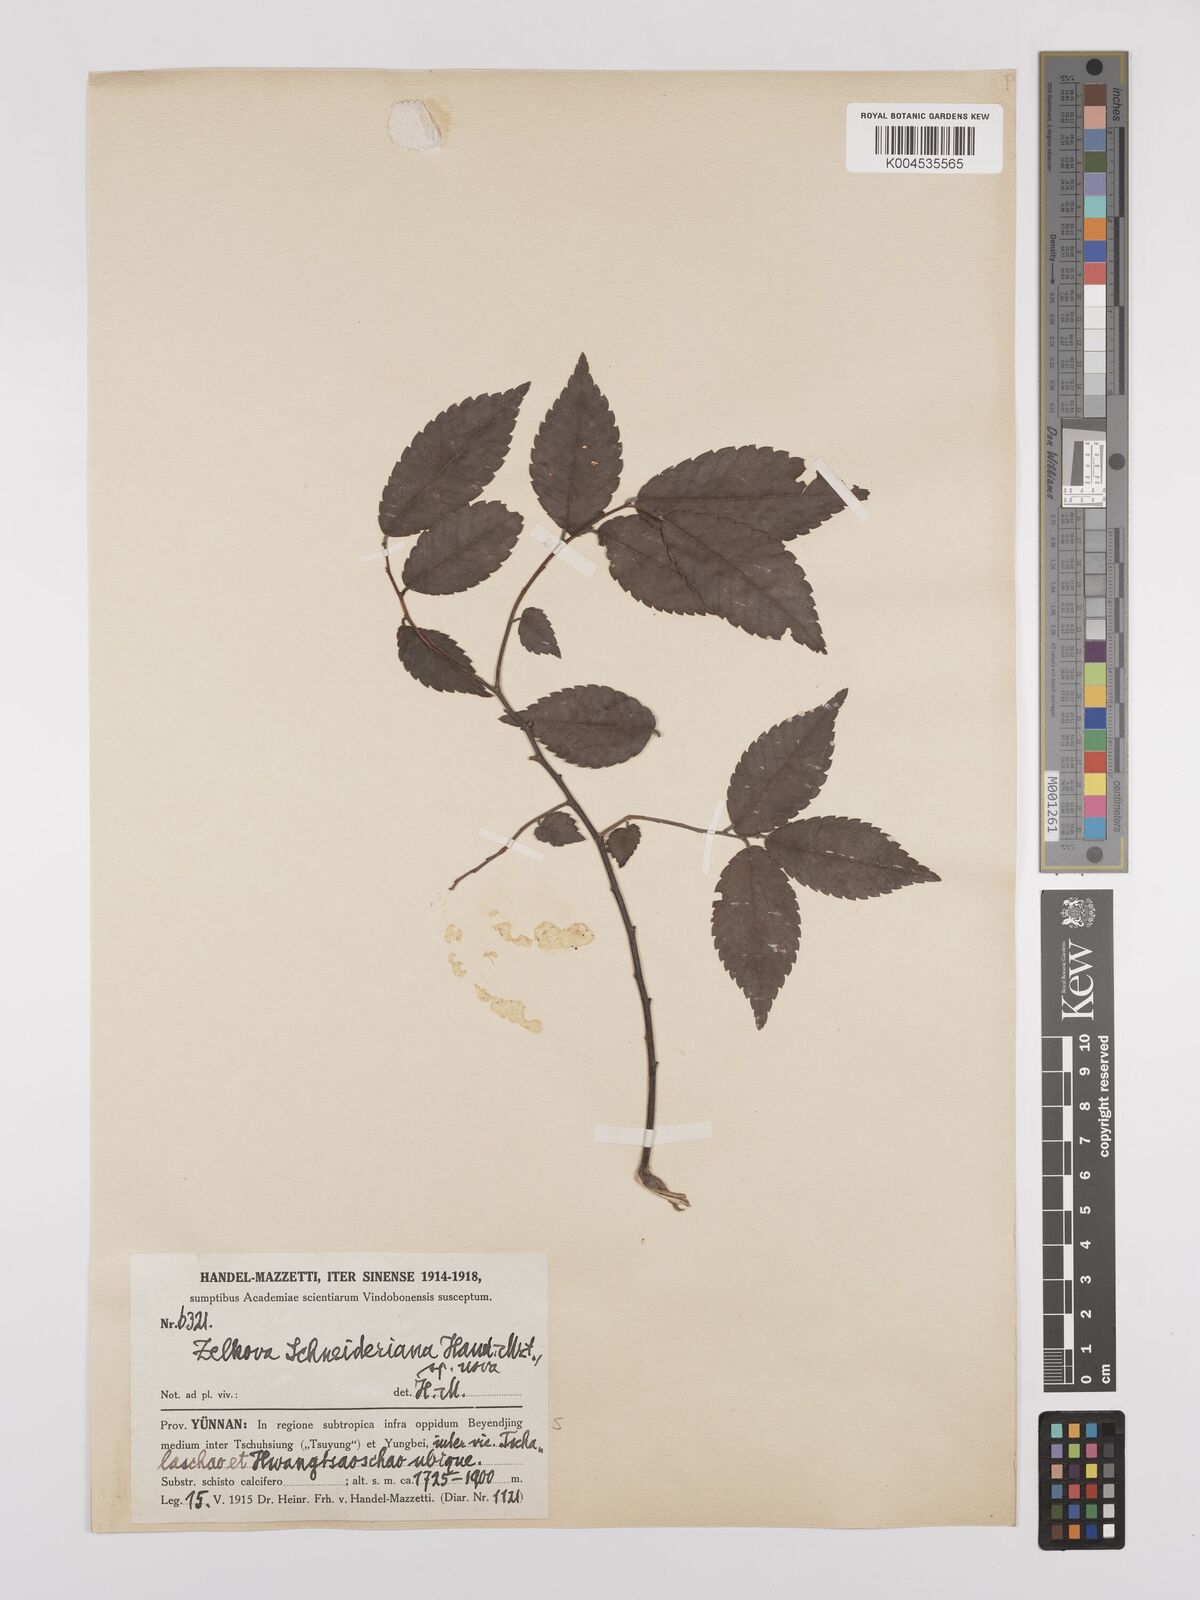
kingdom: Plantae
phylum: Tracheophyta
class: Magnoliopsida
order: Rosales
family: Ulmaceae
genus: Zelkova
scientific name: Zelkova schneideriana
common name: Schneider’s zelkova
